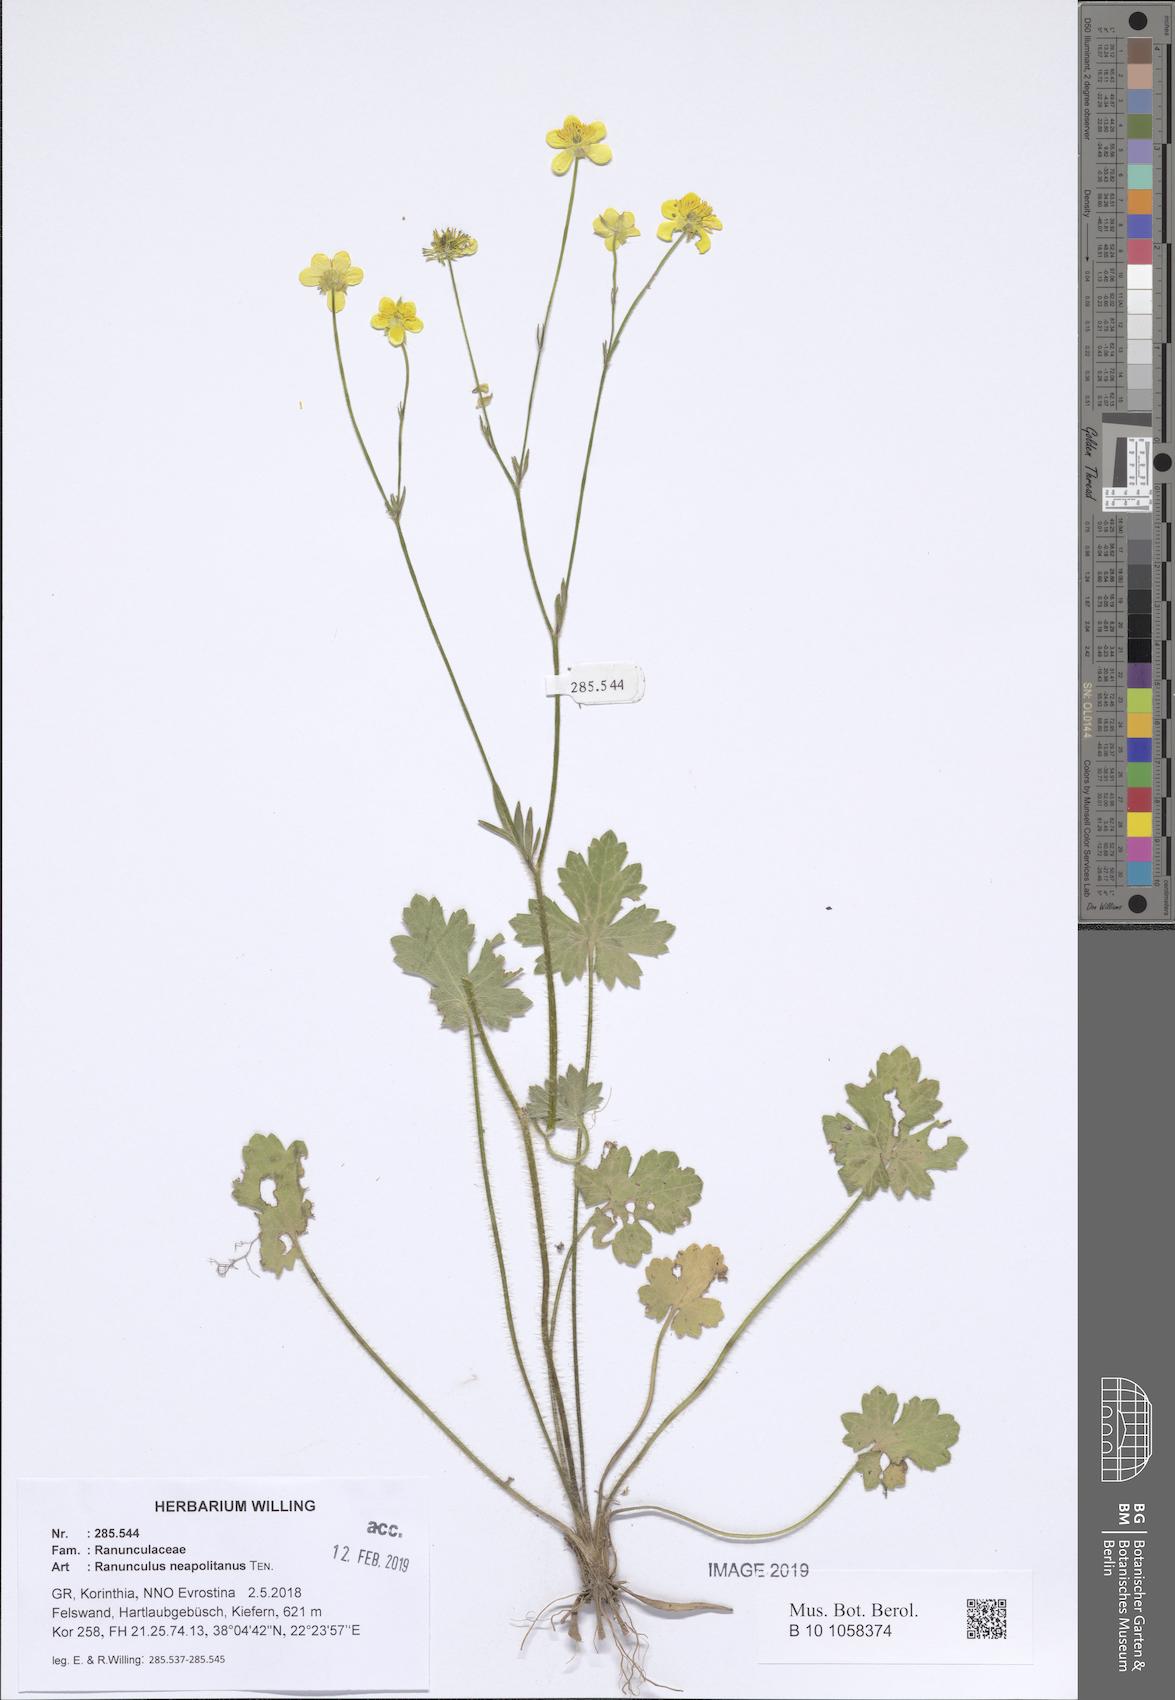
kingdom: Plantae
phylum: Tracheophyta
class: Magnoliopsida
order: Ranunculales
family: Ranunculaceae
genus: Ranunculus
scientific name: Ranunculus neapolitanus
